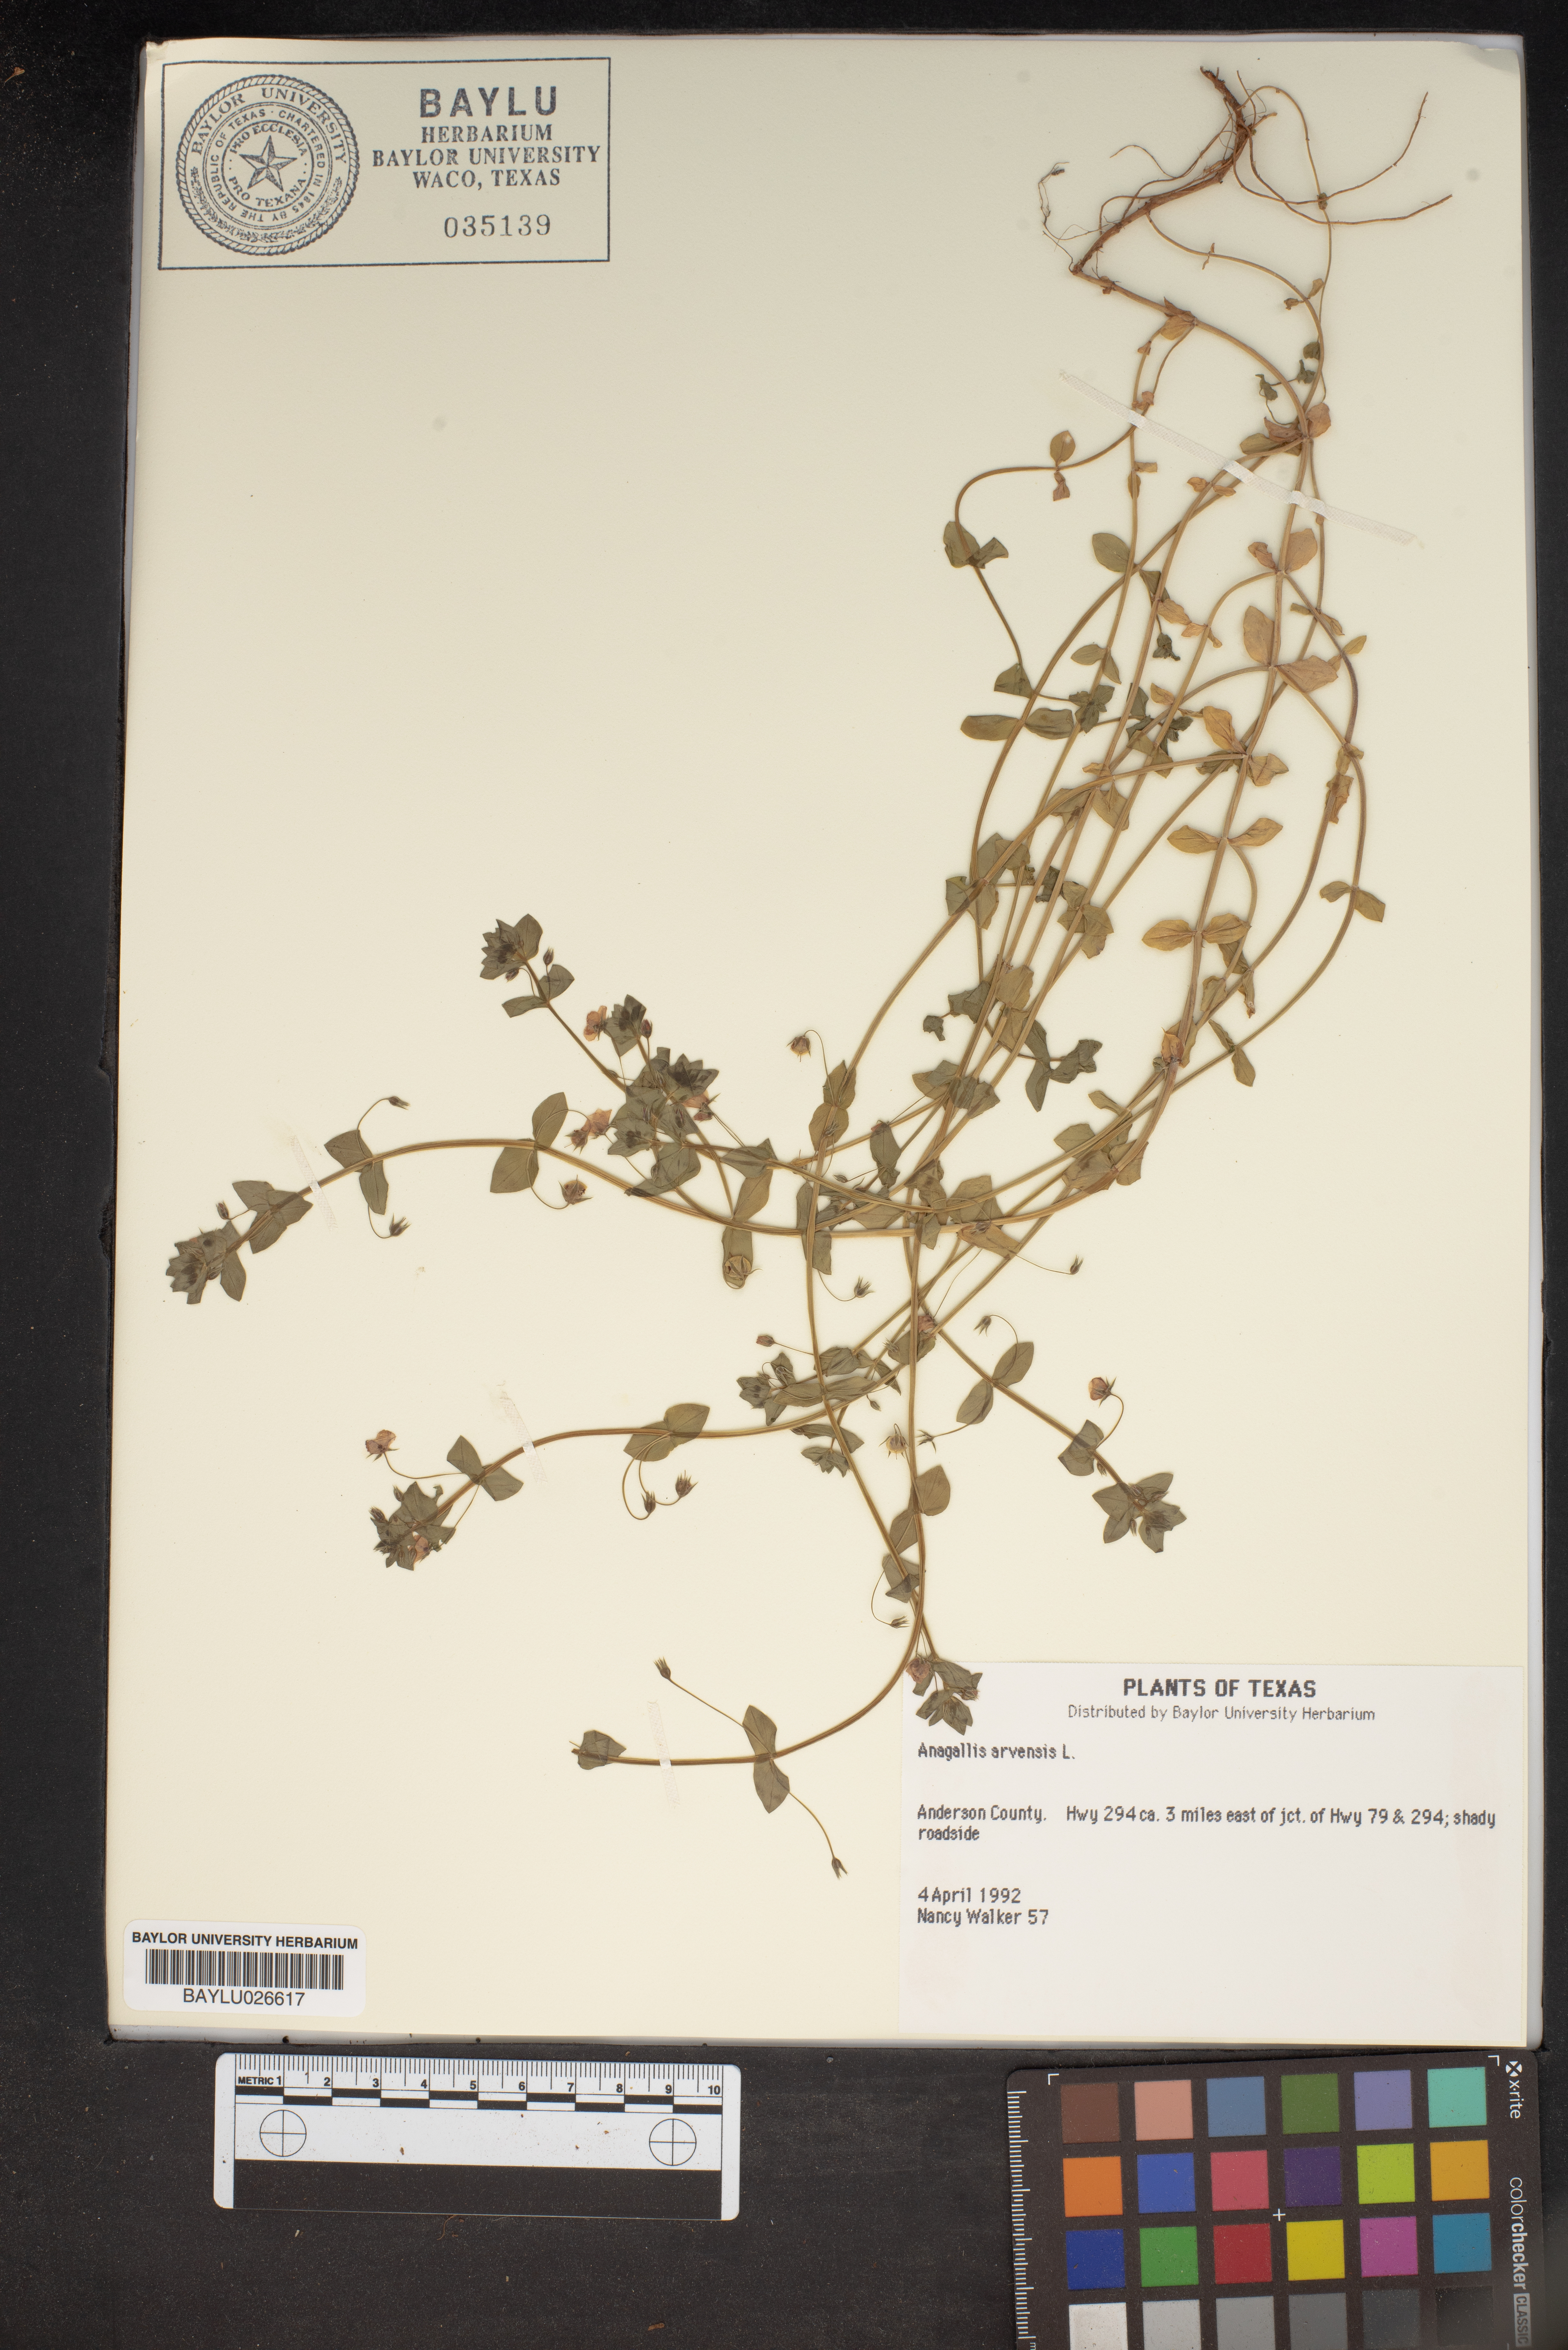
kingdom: Plantae
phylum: Tracheophyta
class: Magnoliopsida
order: Ericales
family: Primulaceae
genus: Lysimachia
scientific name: Lysimachia arvensis
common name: Scarlet pimpernel
